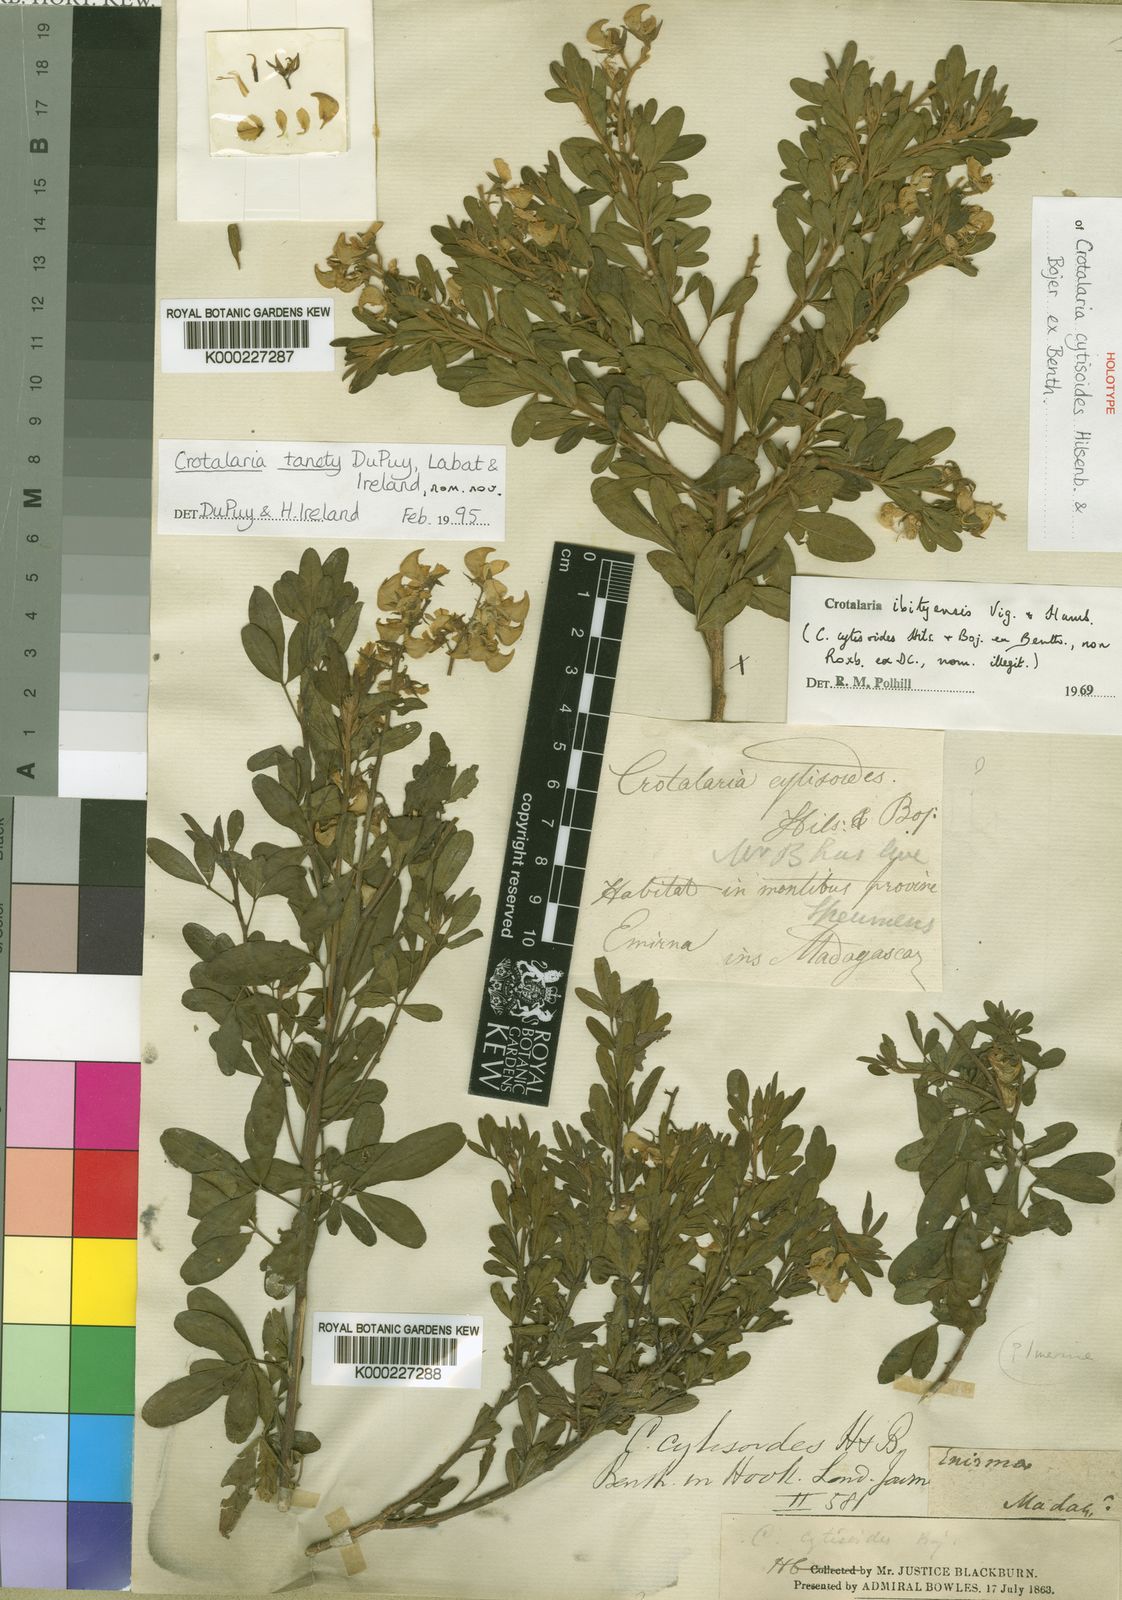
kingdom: Plantae
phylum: Tracheophyta
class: Magnoliopsida
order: Fabales
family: Fabaceae
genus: Crotalaria
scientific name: Crotalaria
